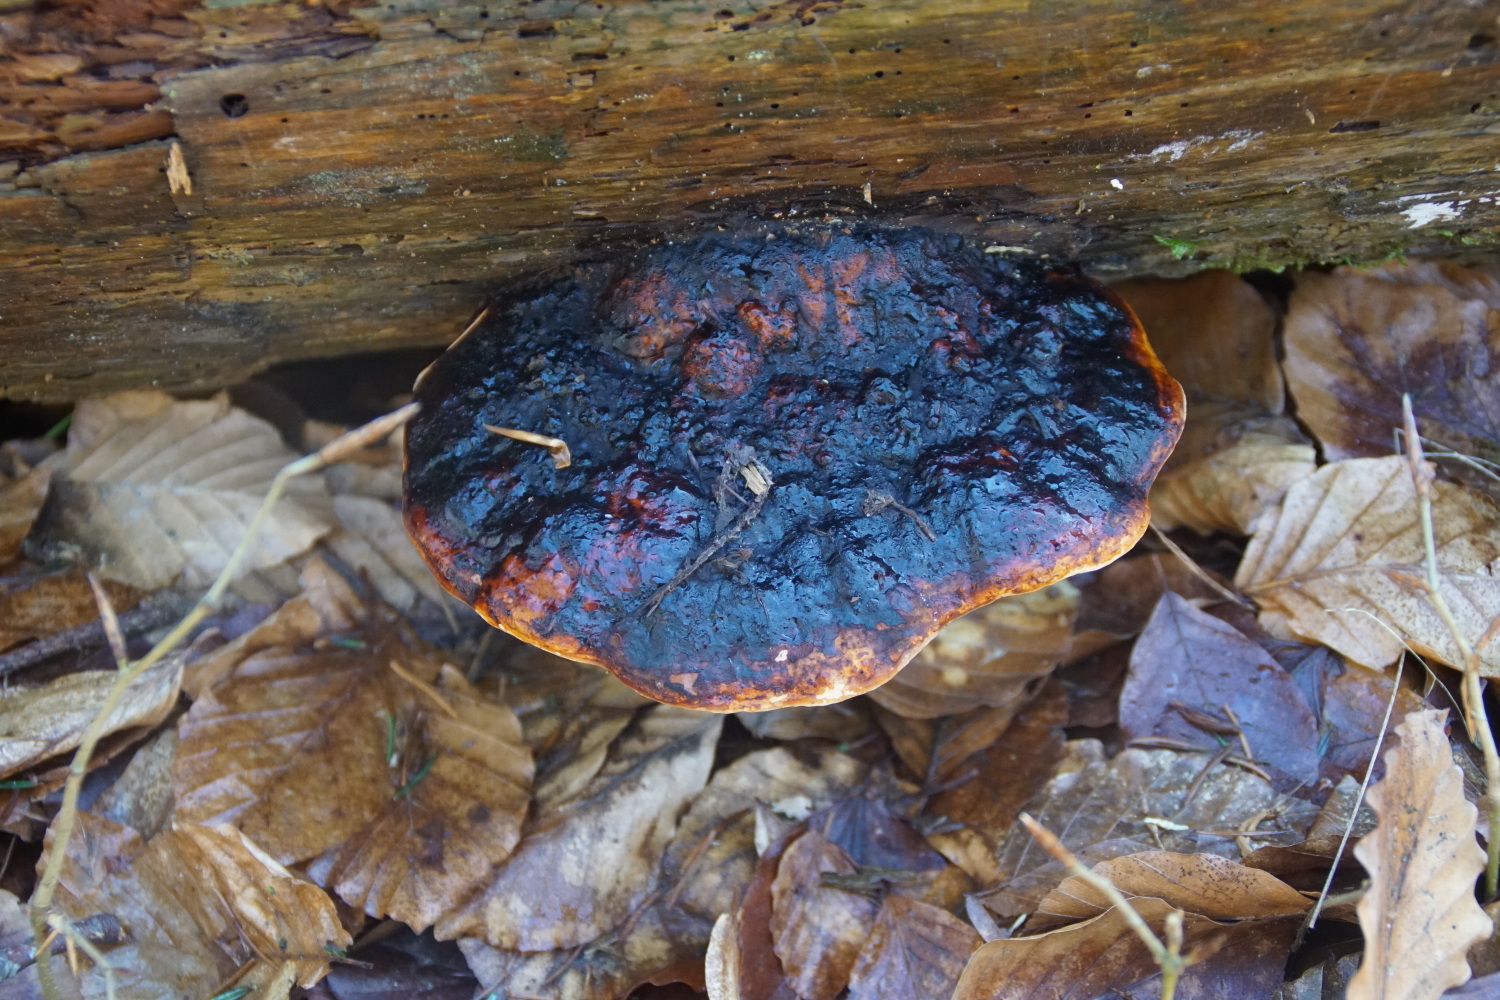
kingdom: Fungi
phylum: Basidiomycota
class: Agaricomycetes
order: Polyporales
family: Fomitopsidaceae
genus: Fomitopsis
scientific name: Fomitopsis pinicola
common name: randbæltet hovporesvamp
